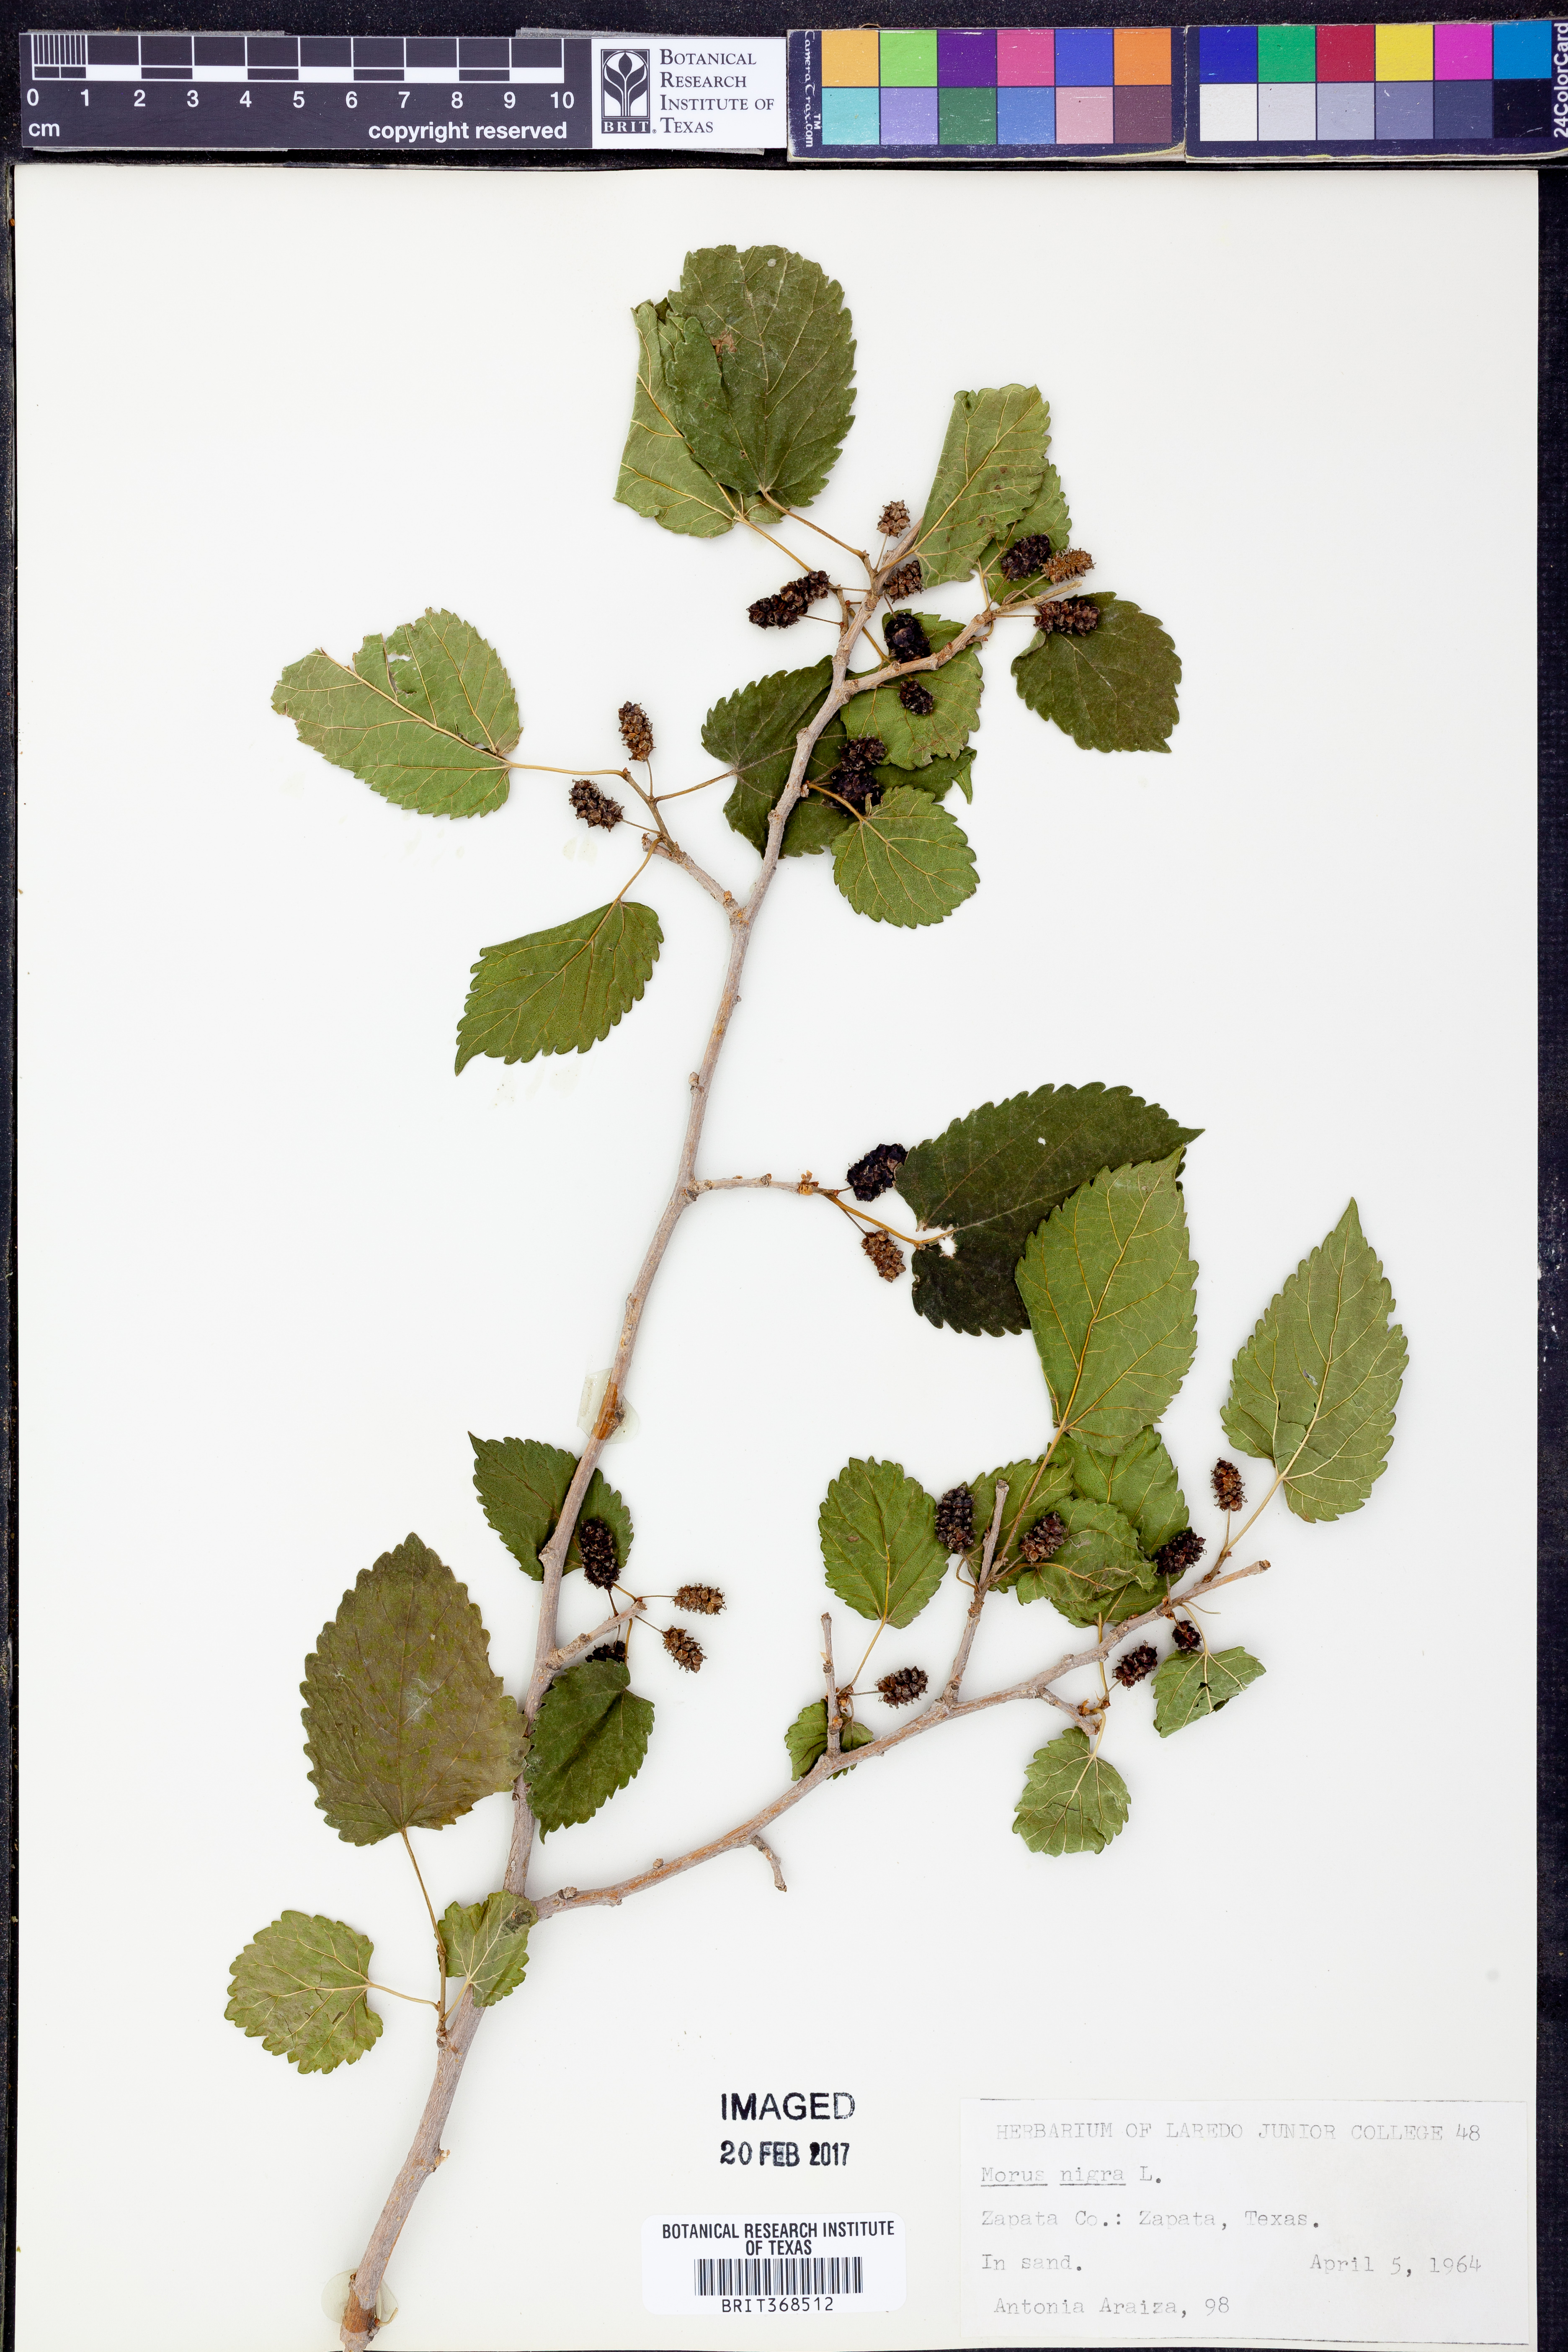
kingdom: Plantae
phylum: Tracheophyta
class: Magnoliopsida
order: Rosales
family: Moraceae
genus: Morus
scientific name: Morus nigra
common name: Black mulberry
